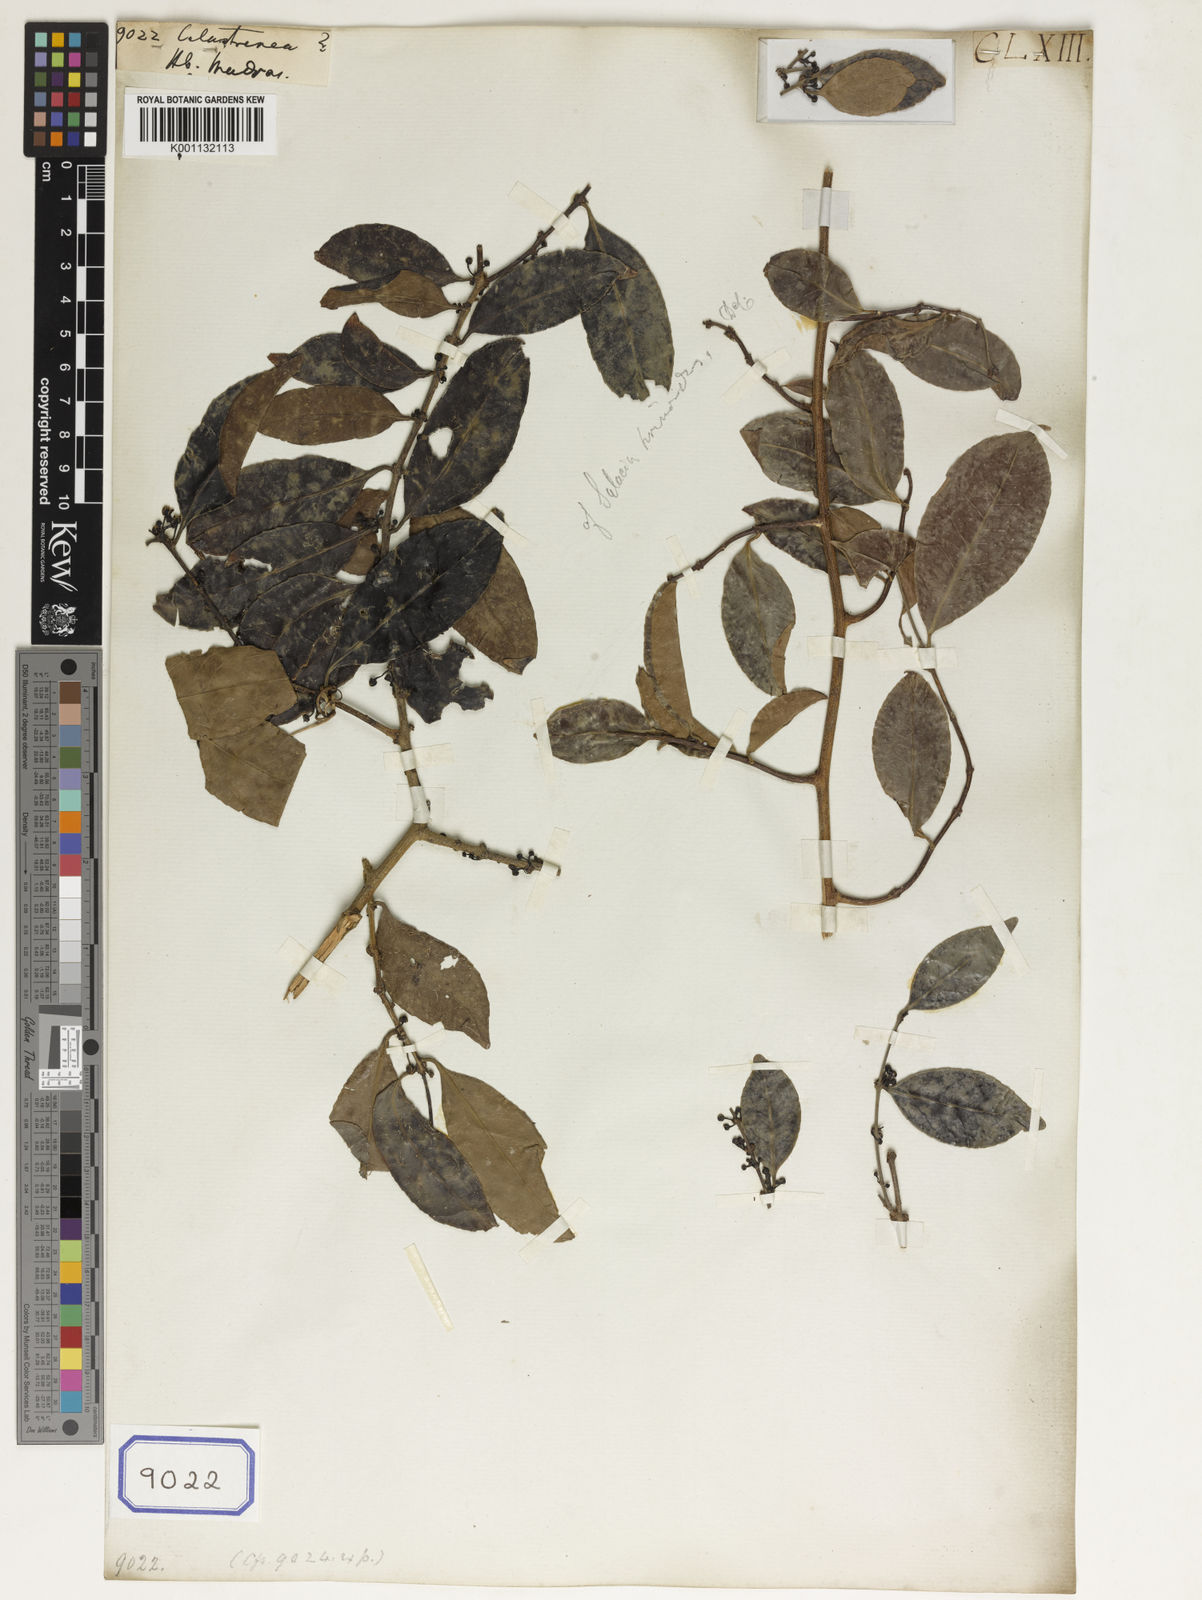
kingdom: Plantae
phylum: Tracheophyta
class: Magnoliopsida
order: Celastrales
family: Celastraceae
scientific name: Celastraceae
